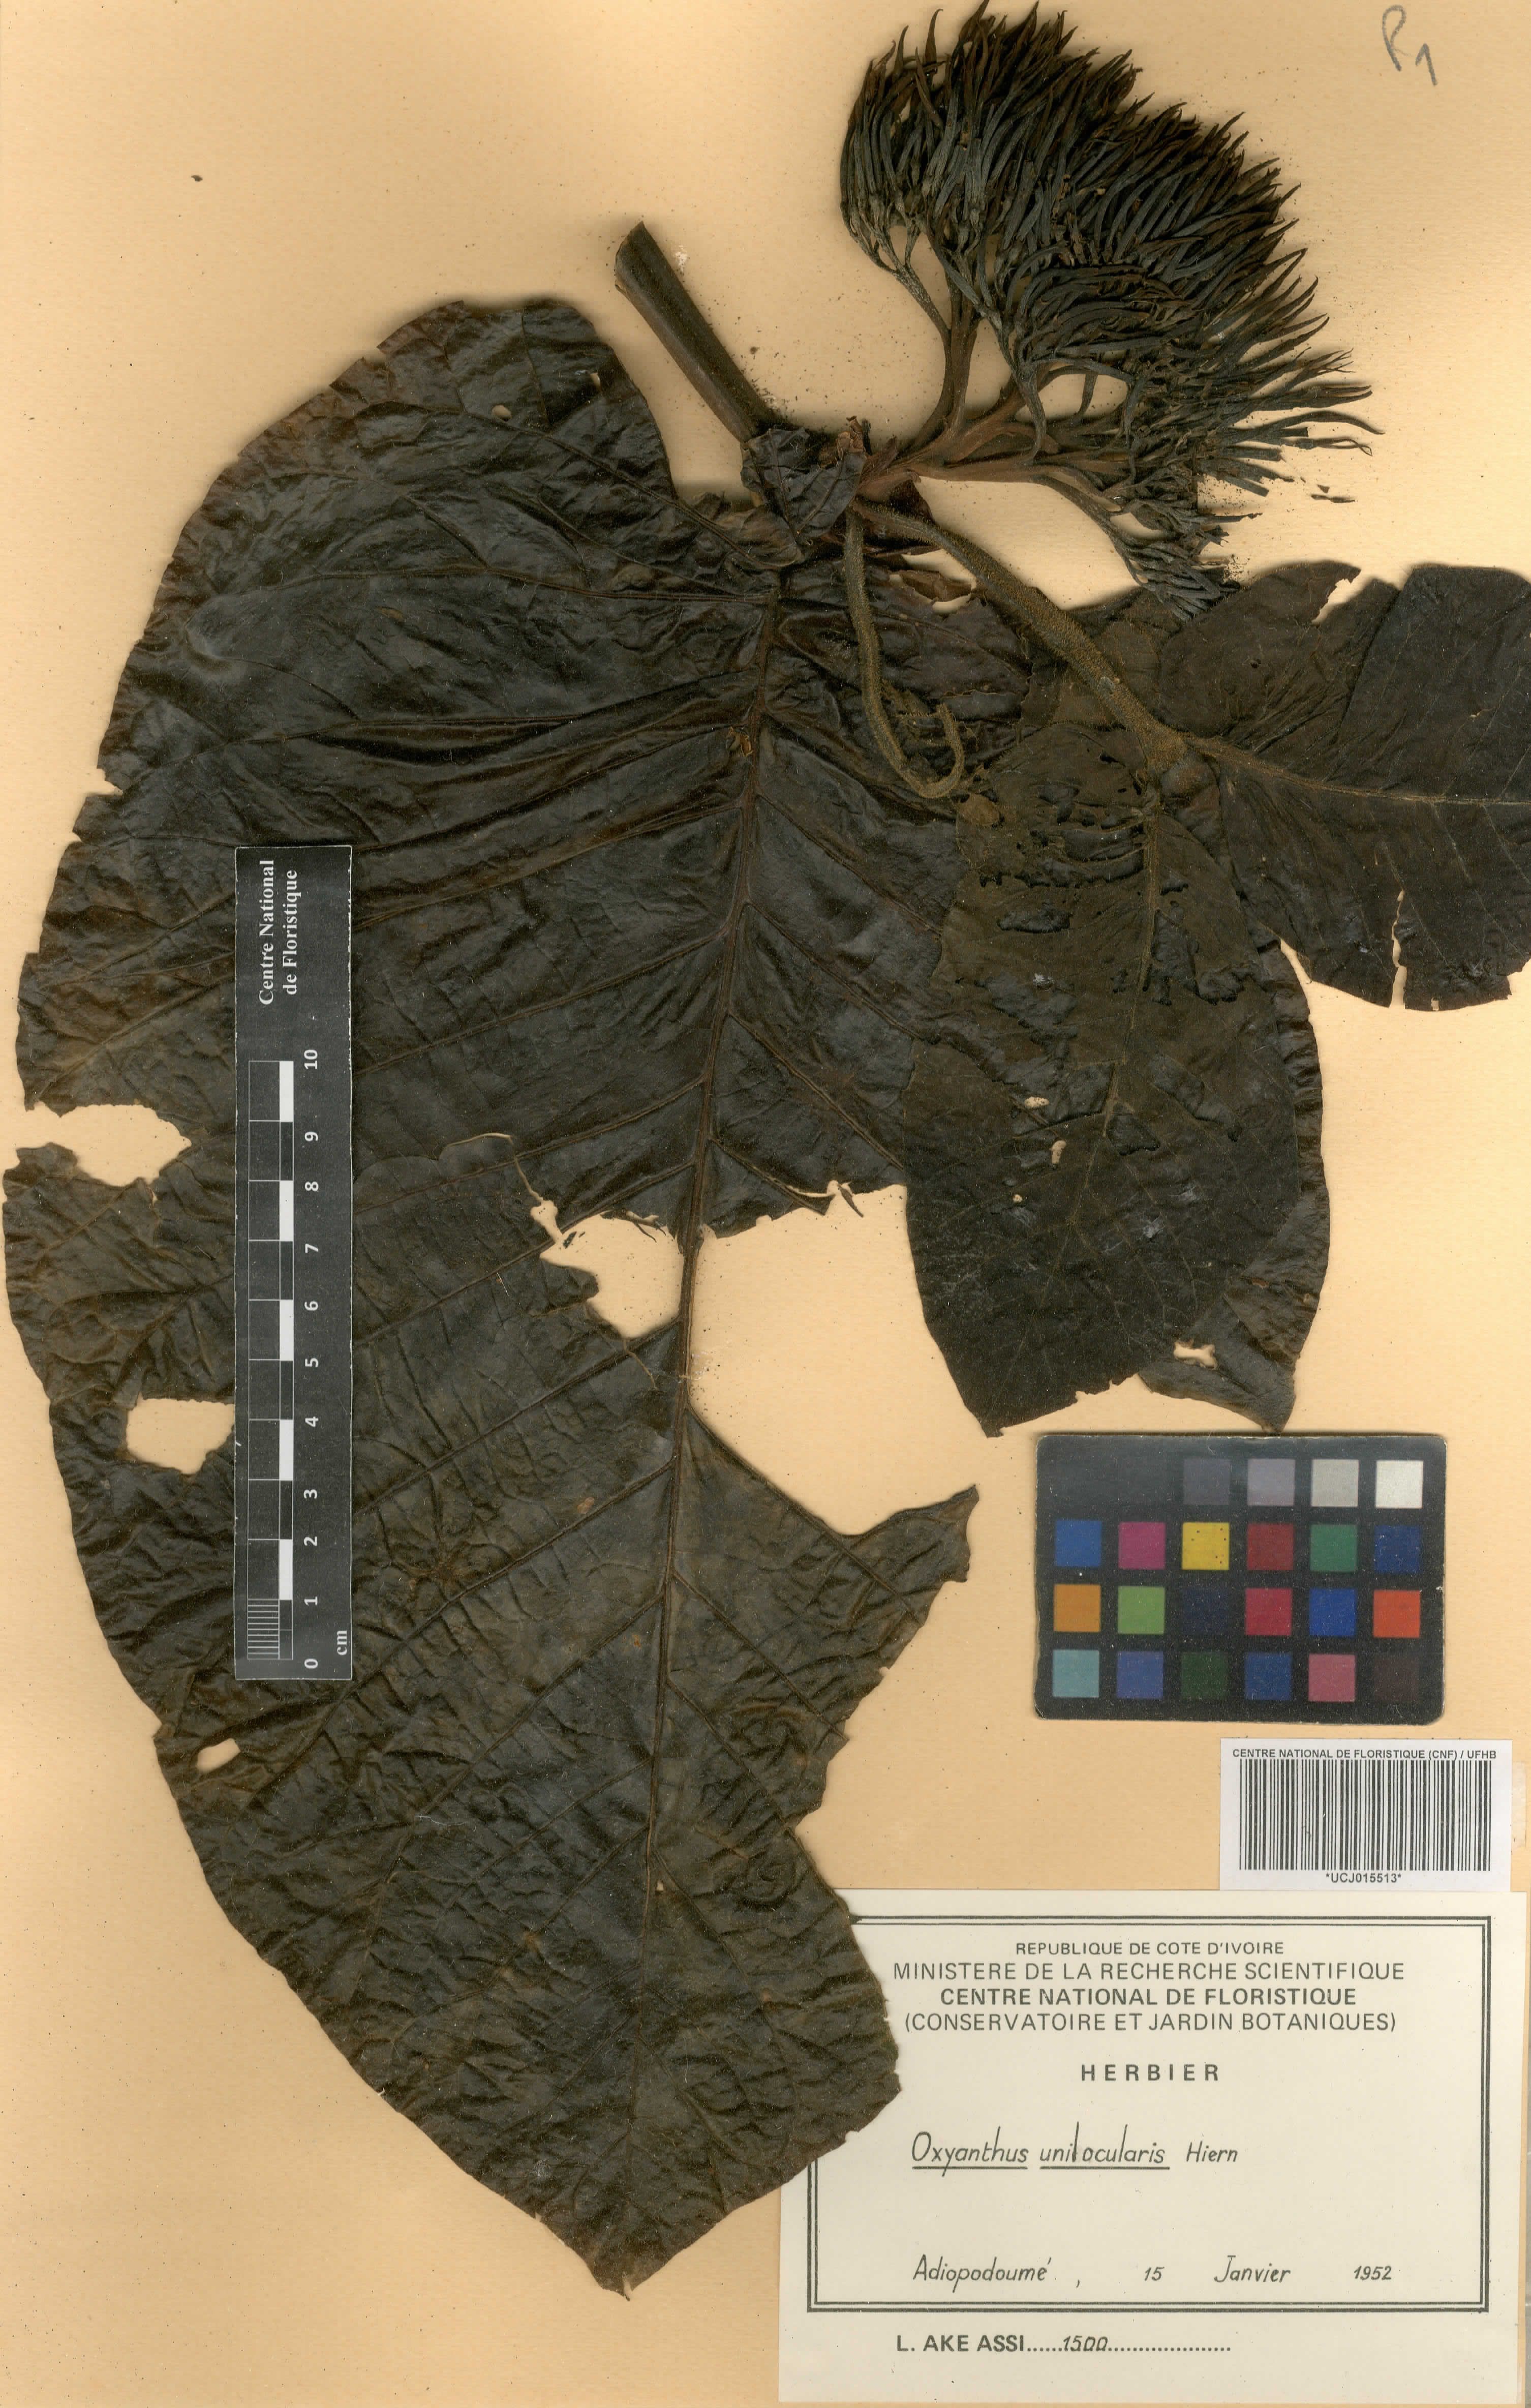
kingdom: Plantae
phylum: Tracheophyta
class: Magnoliopsida
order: Gentianales
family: Rubiaceae
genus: Oxyanthus
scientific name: Oxyanthus unilocularis
